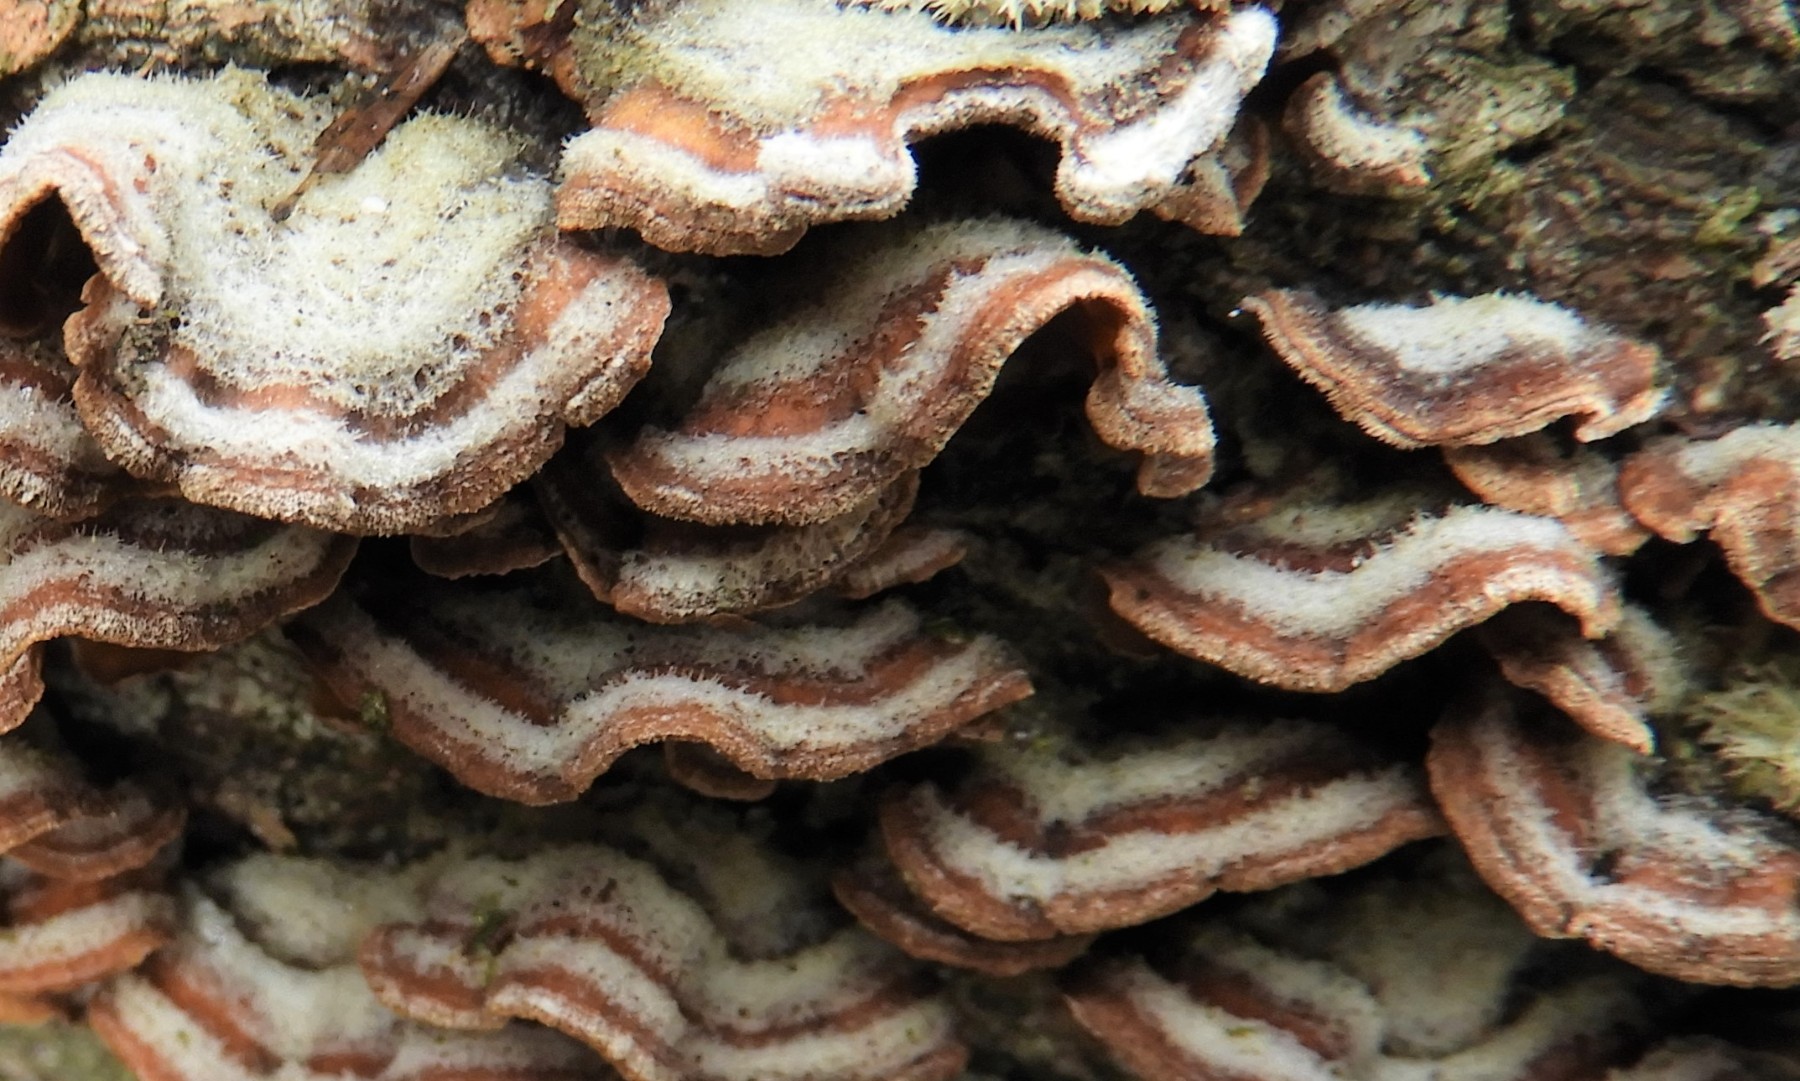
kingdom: Fungi
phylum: Basidiomycota
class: Agaricomycetes
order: Russulales
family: Stereaceae
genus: Stereum
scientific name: Stereum hirsutum
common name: håret lædersvamp
